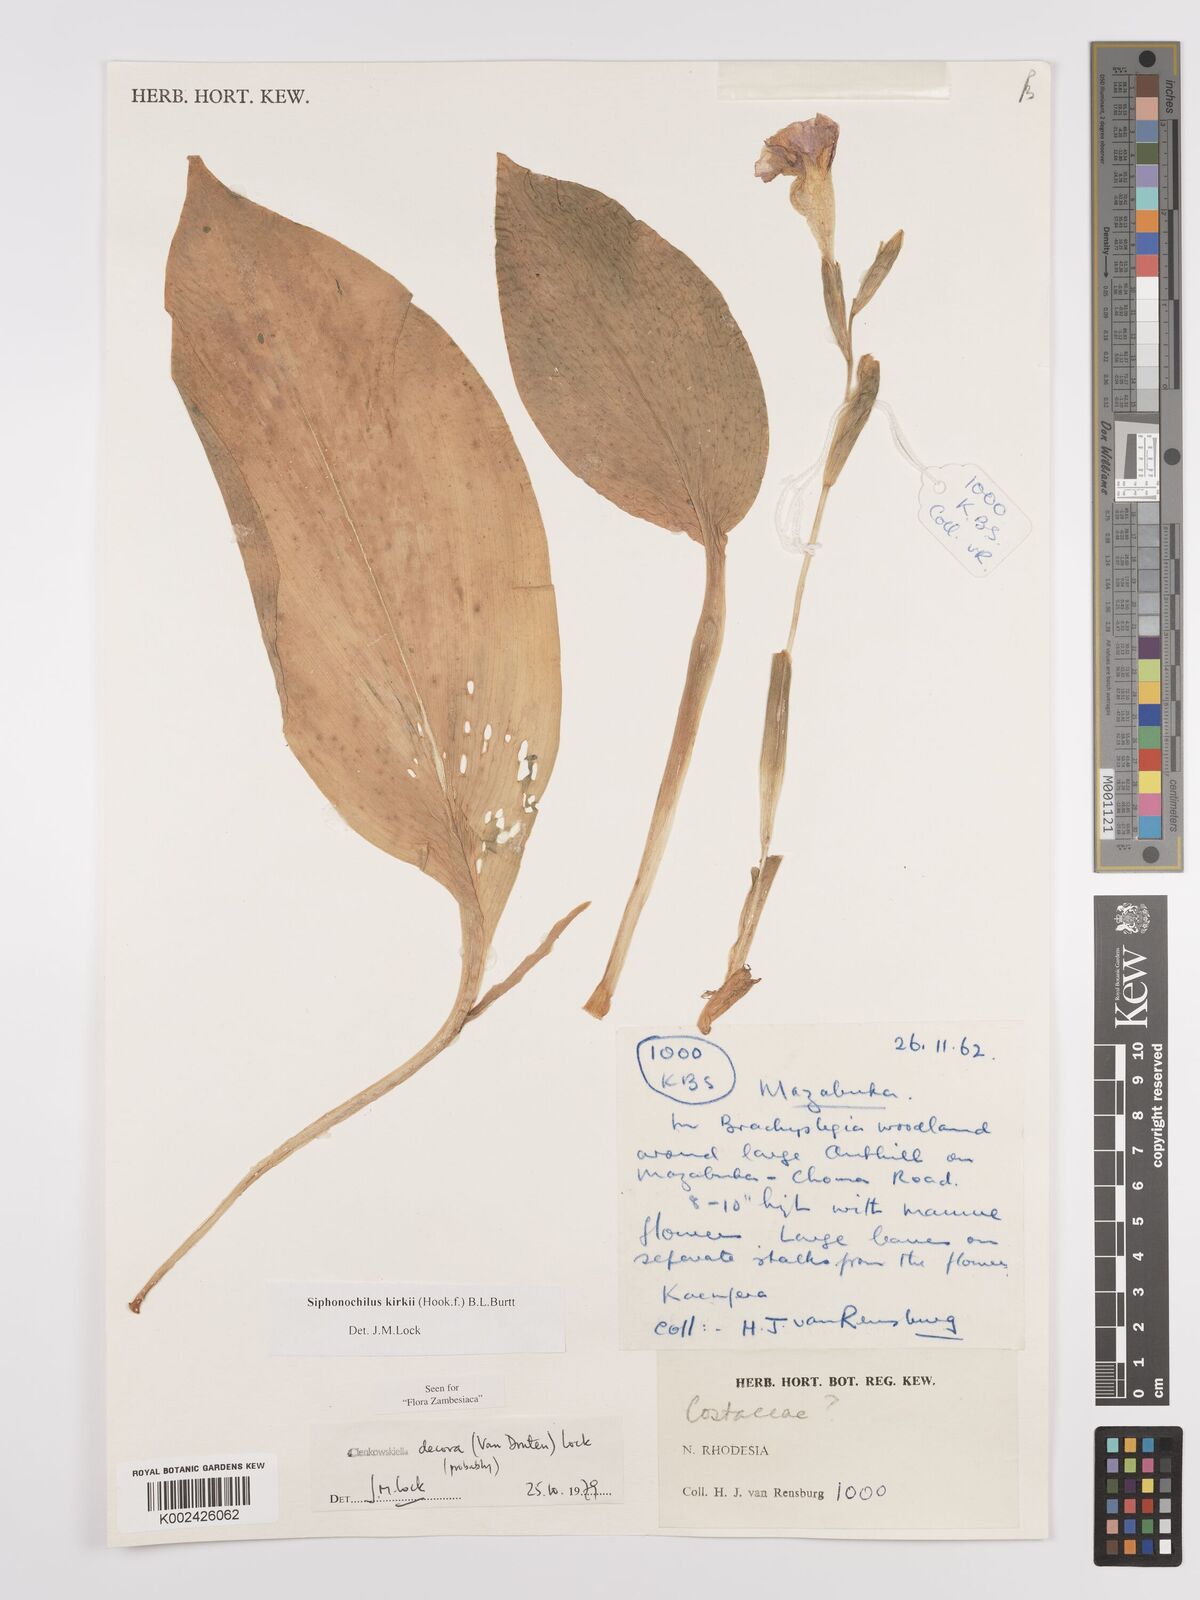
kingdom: Plantae
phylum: Tracheophyta
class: Liliopsida
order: Zingiberales
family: Zingiberaceae
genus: Siphonochilus
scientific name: Siphonochilus kirkii
